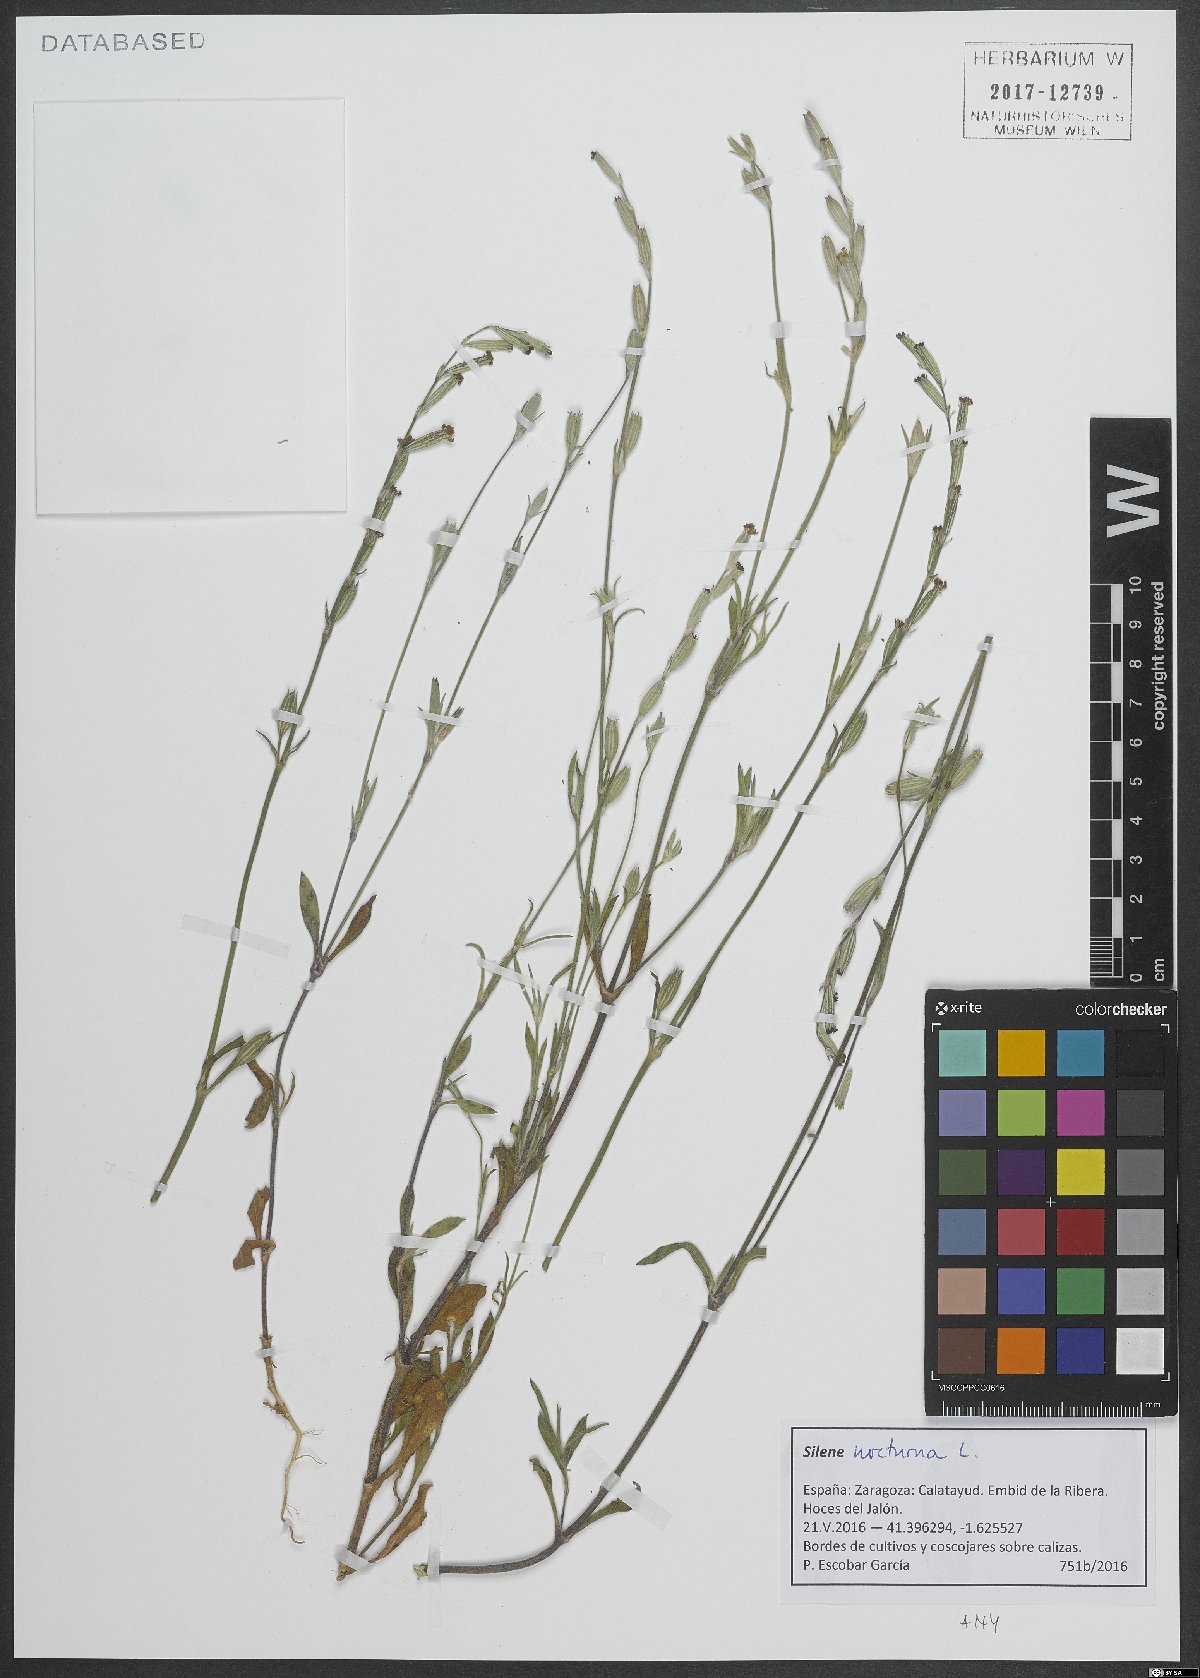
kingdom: Plantae
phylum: Tracheophyta
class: Magnoliopsida
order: Caryophyllales
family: Caryophyllaceae
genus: Silene
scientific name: Silene nocturna
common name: Mediterranean catchfly
